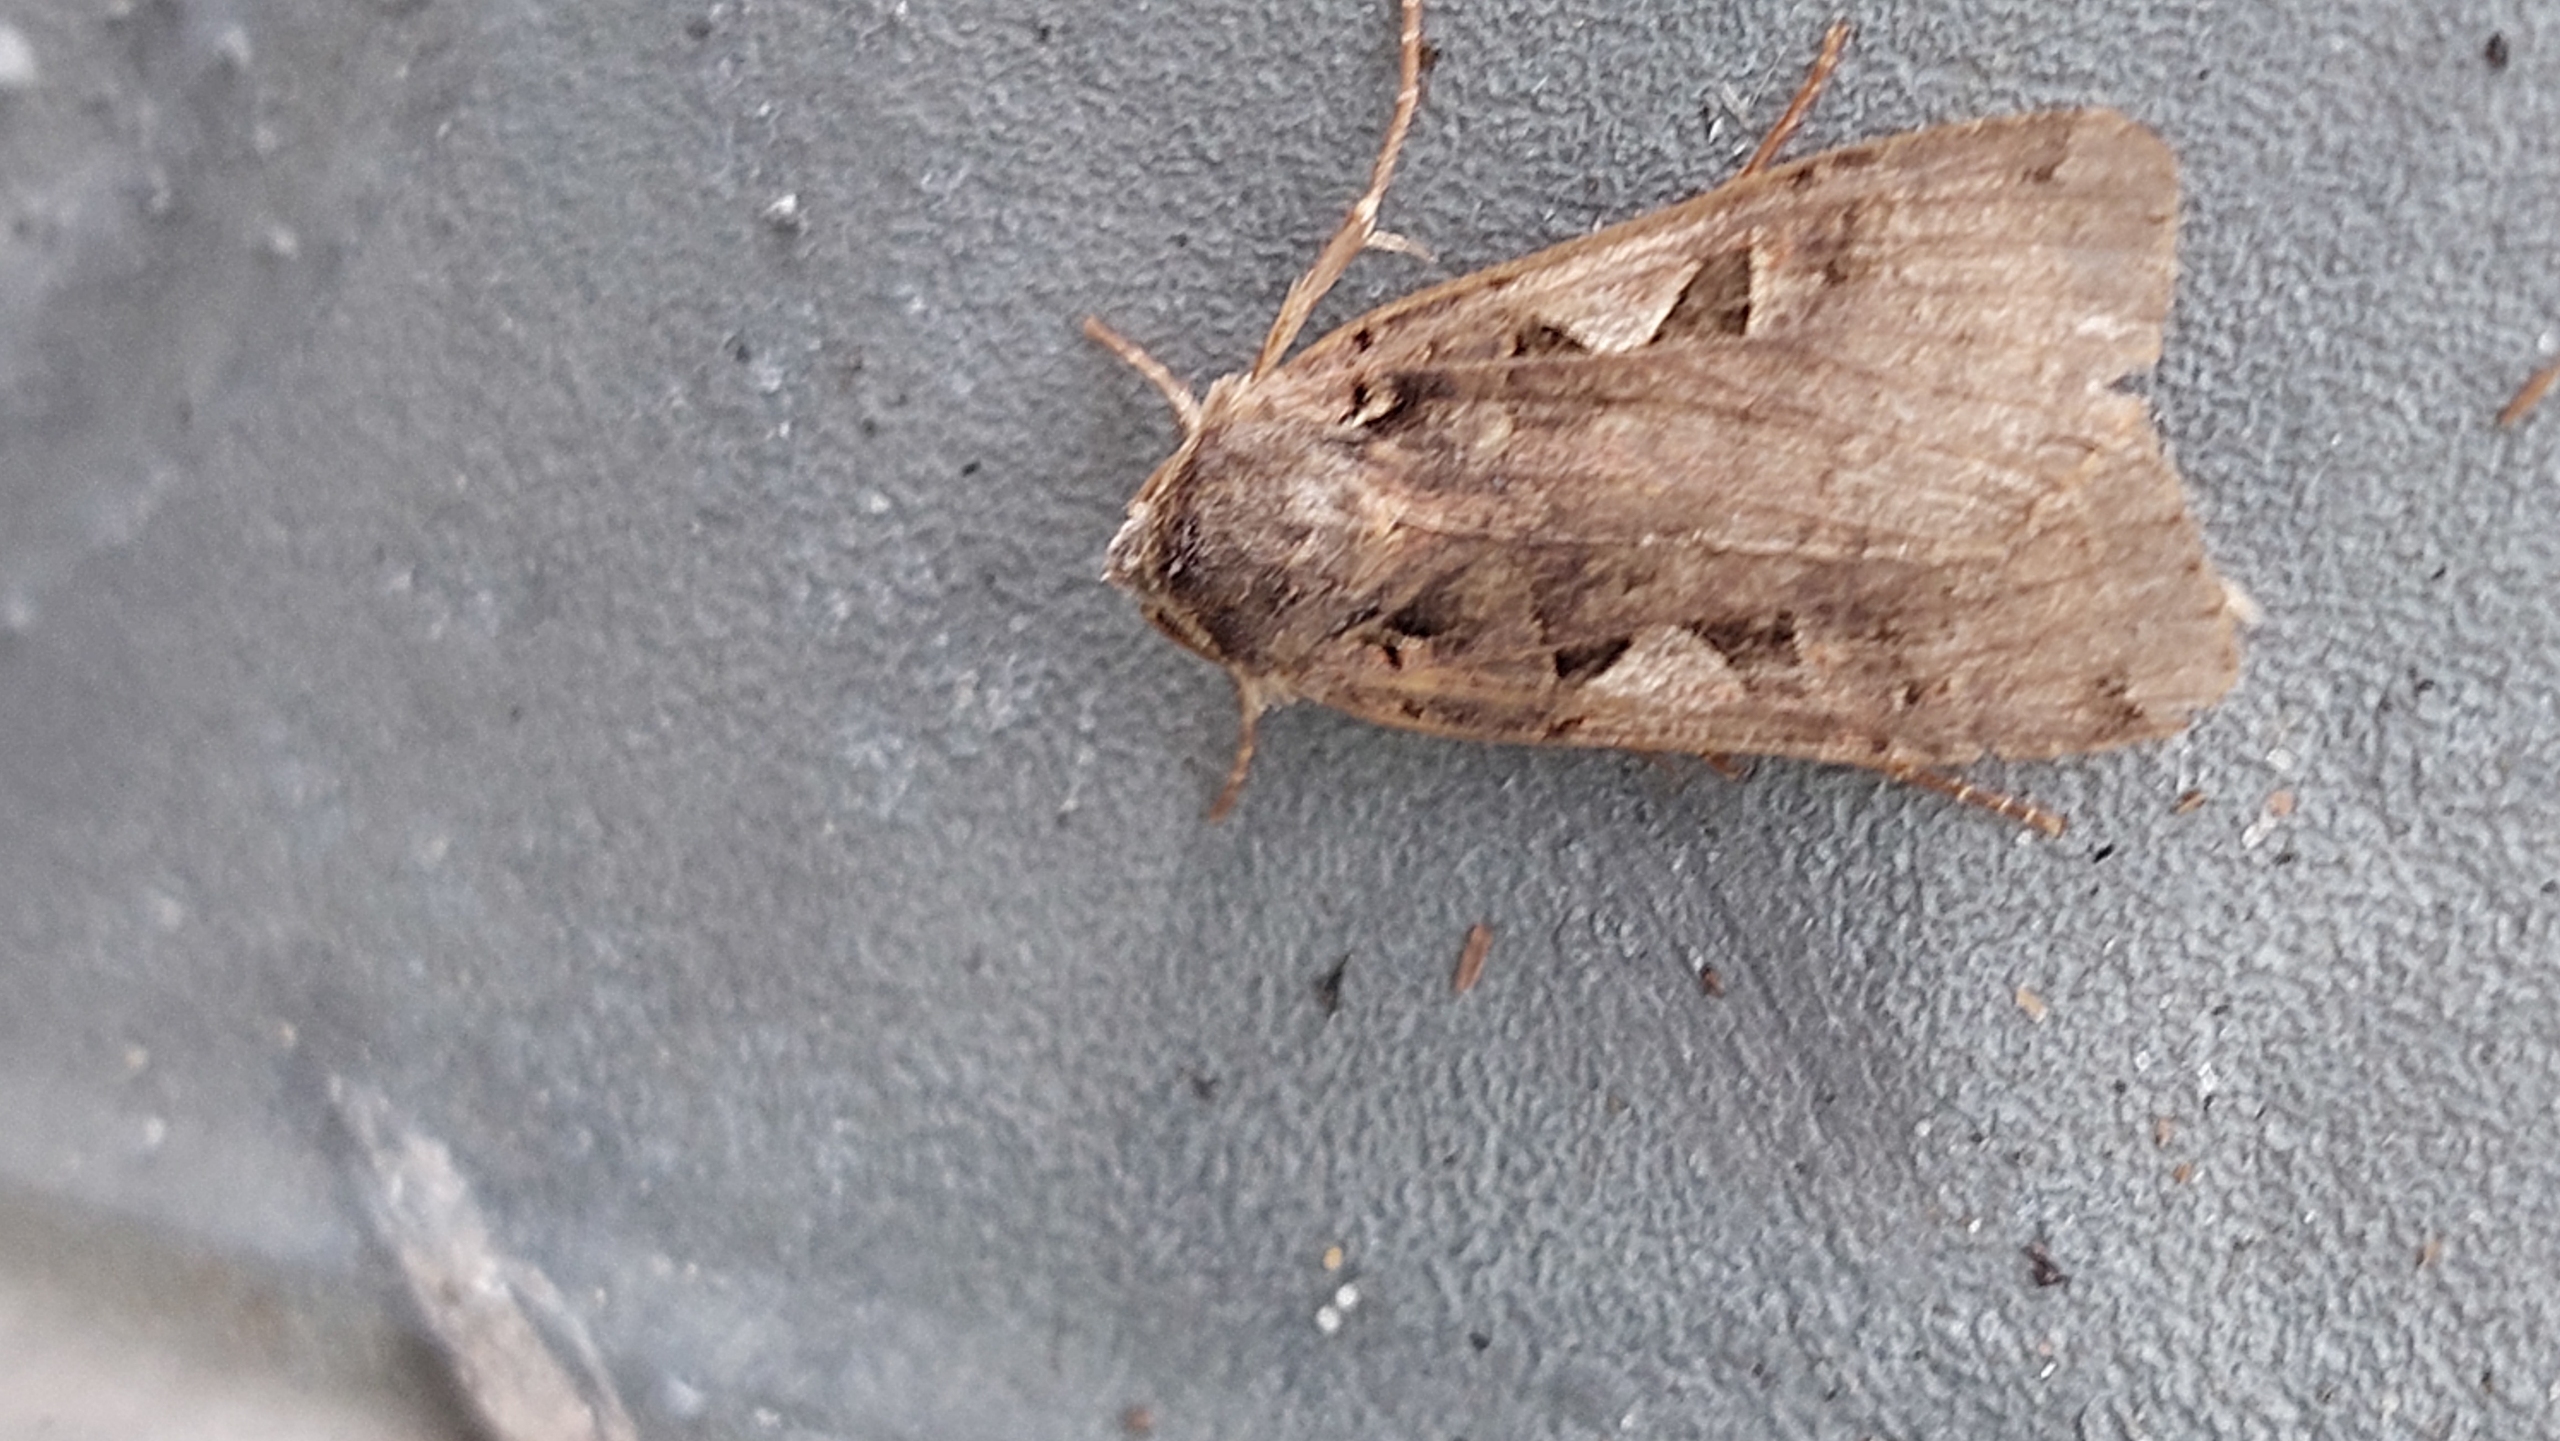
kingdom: Animalia
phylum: Arthropoda
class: Insecta
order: Lepidoptera
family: Noctuidae
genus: Xestia
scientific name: Xestia c-nigrum
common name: Det sorte c
